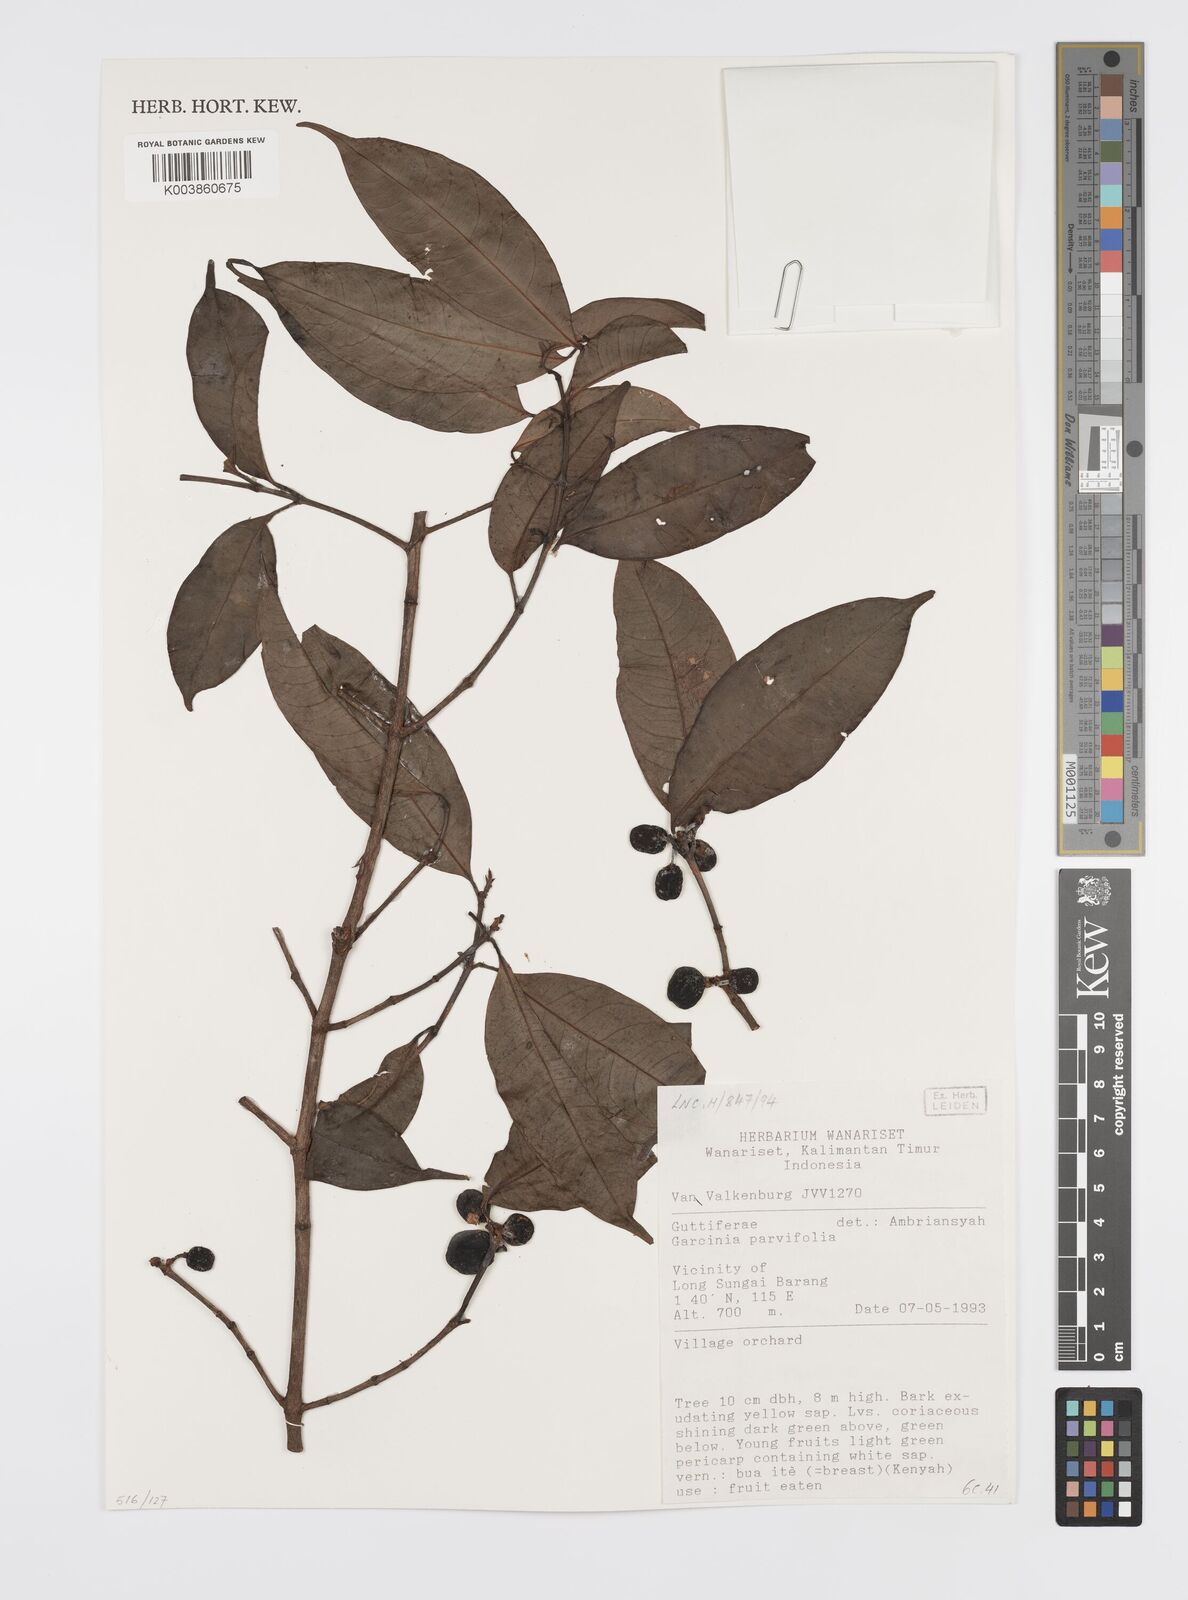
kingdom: Plantae
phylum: Tracheophyta
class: Magnoliopsida
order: Malpighiales
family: Clusiaceae
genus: Garcinia
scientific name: Garcinia parvifolia
